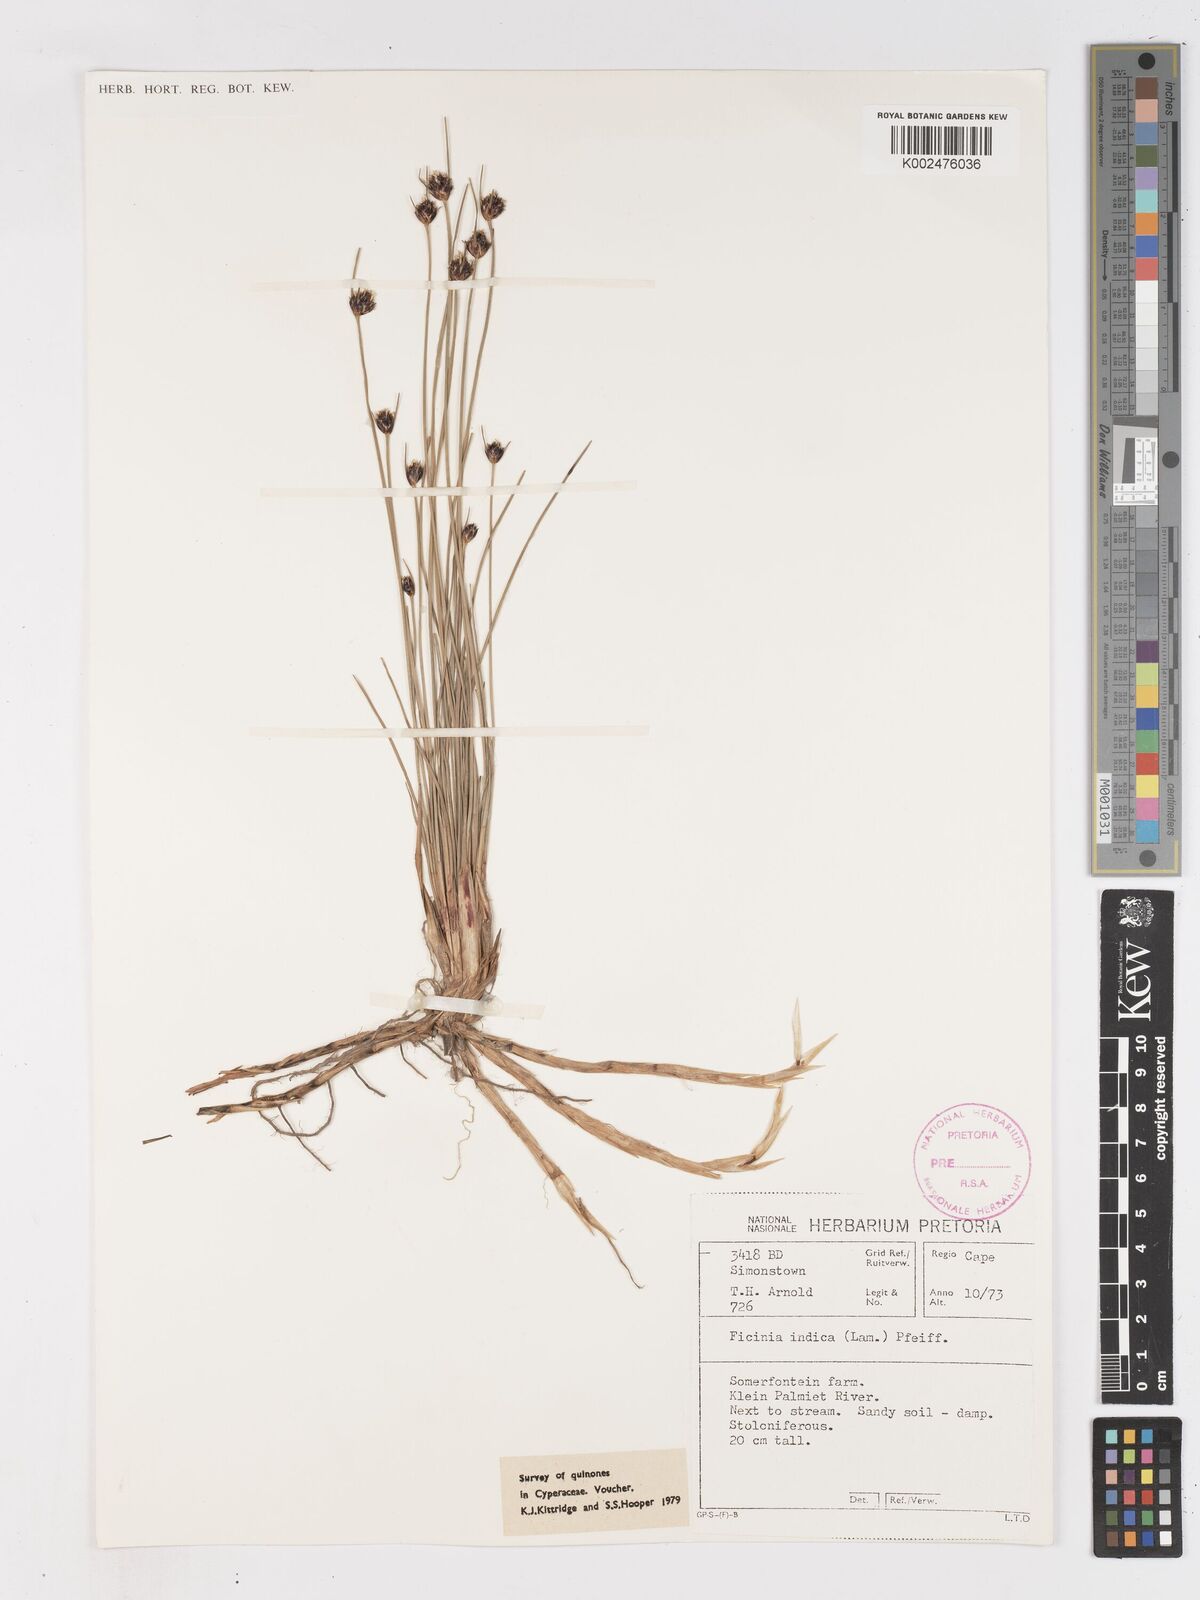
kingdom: Plantae
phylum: Tracheophyta
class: Liliopsida
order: Poales
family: Cyperaceae
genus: Ficinia
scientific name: Ficinia indica
